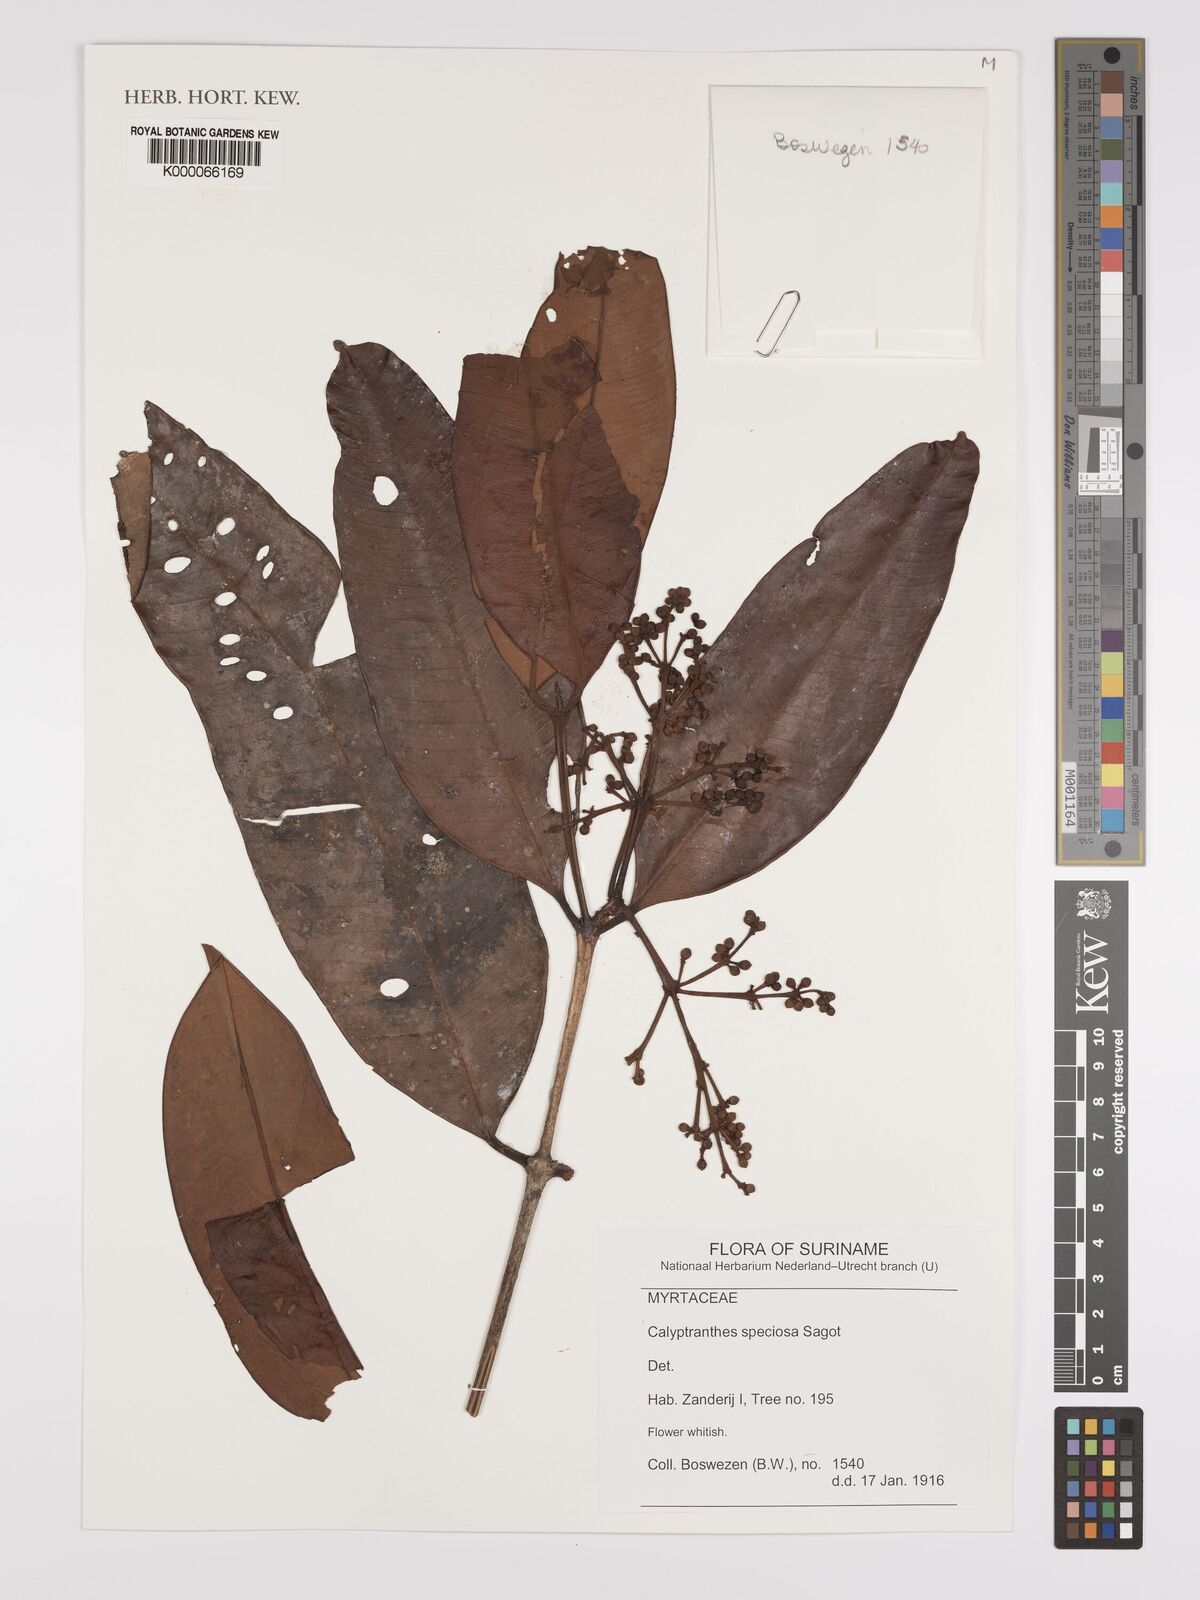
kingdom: Plantae
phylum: Tracheophyta
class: Magnoliopsida
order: Myrtales
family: Myrtaceae
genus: Myrcia
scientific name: Myrcia neospeciosa
